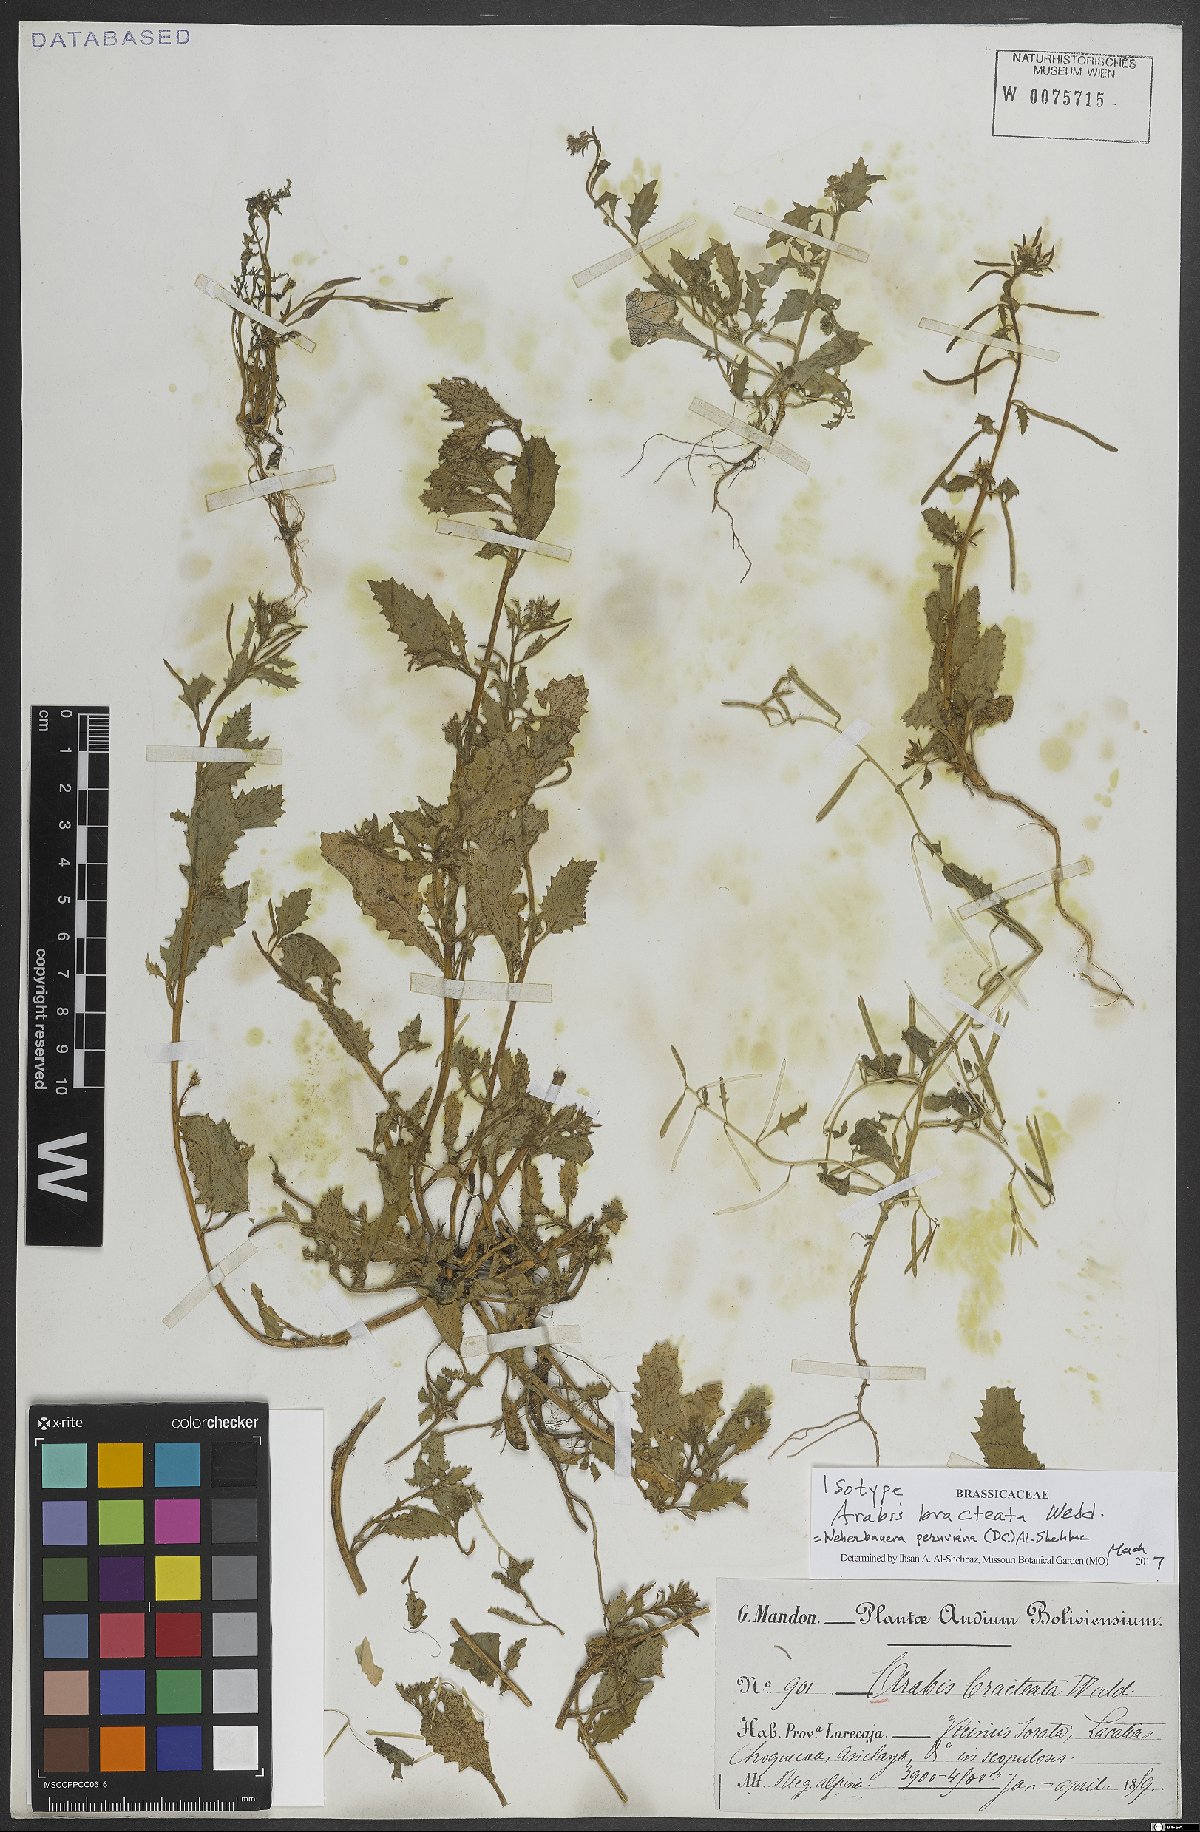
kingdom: Plantae
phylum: Tracheophyta
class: Magnoliopsida
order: Brassicales
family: Brassicaceae
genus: Weberbauera
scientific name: Weberbauera peruviana
